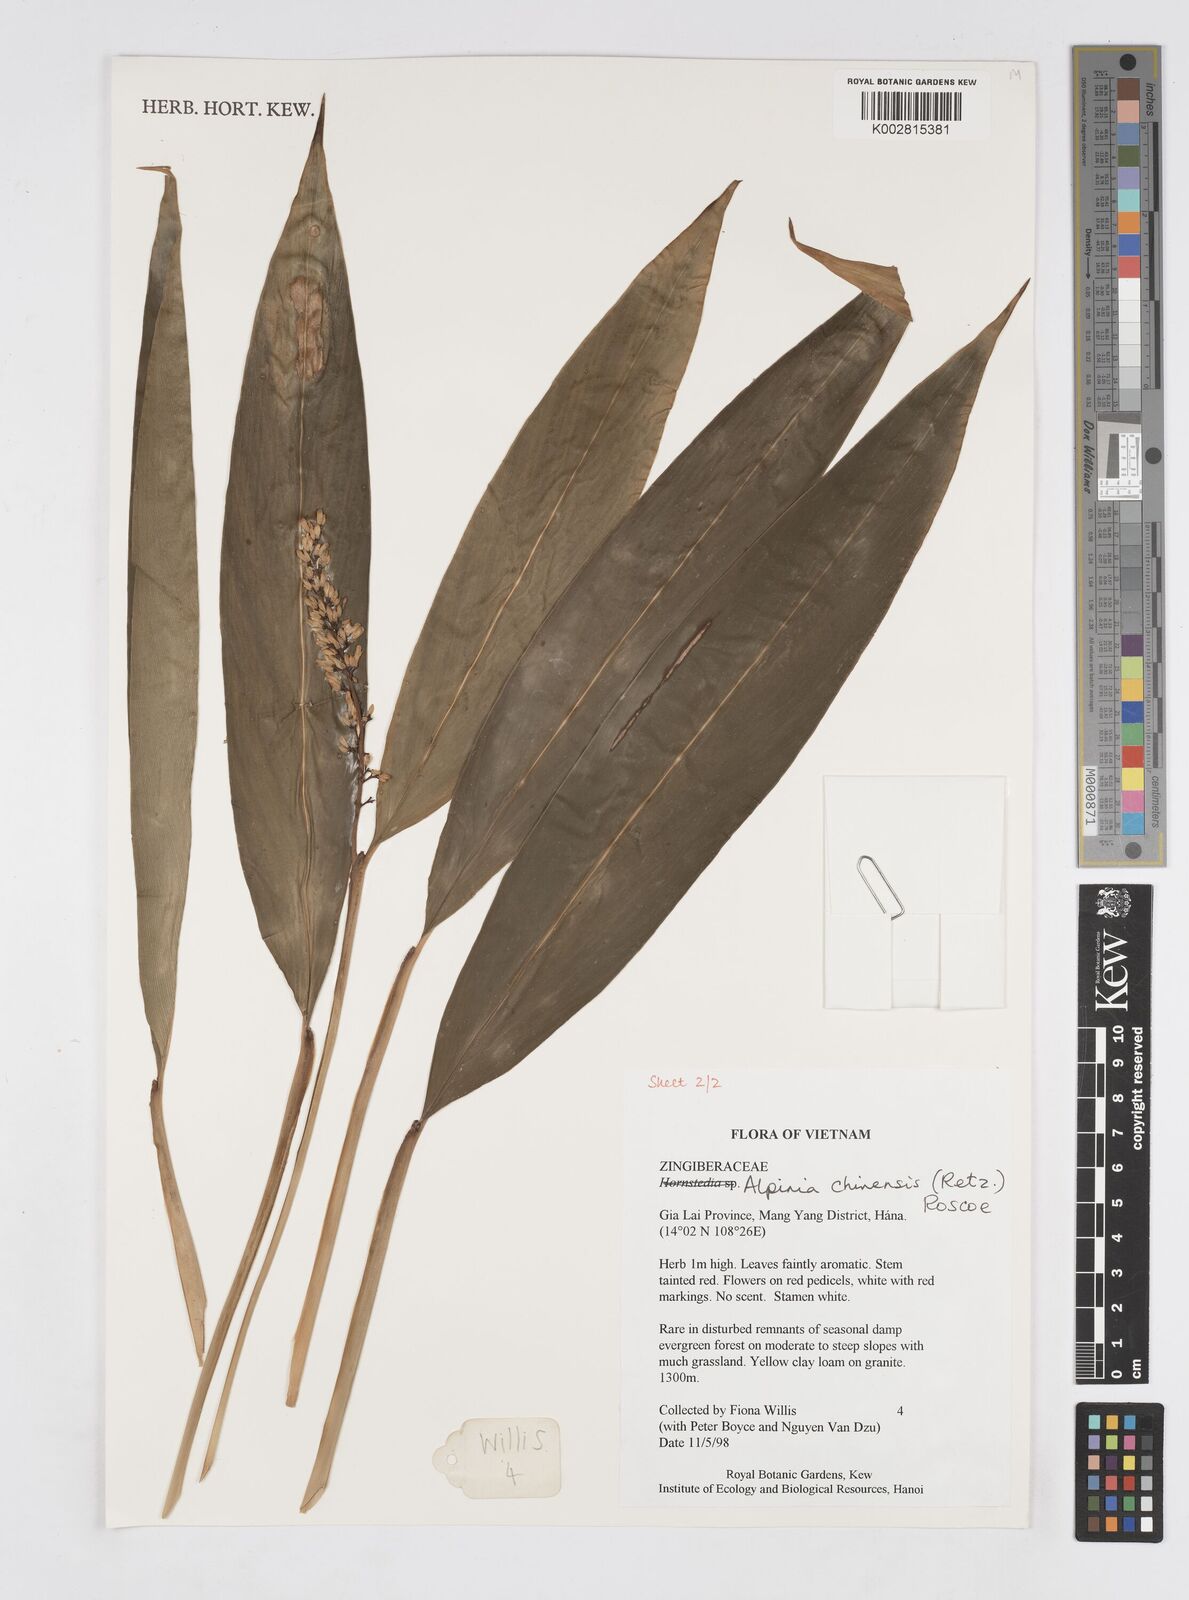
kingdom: Plantae
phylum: Tracheophyta
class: Liliopsida
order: Zingiberales
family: Zingiberaceae
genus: Alpinia
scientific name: Alpinia chinensis
